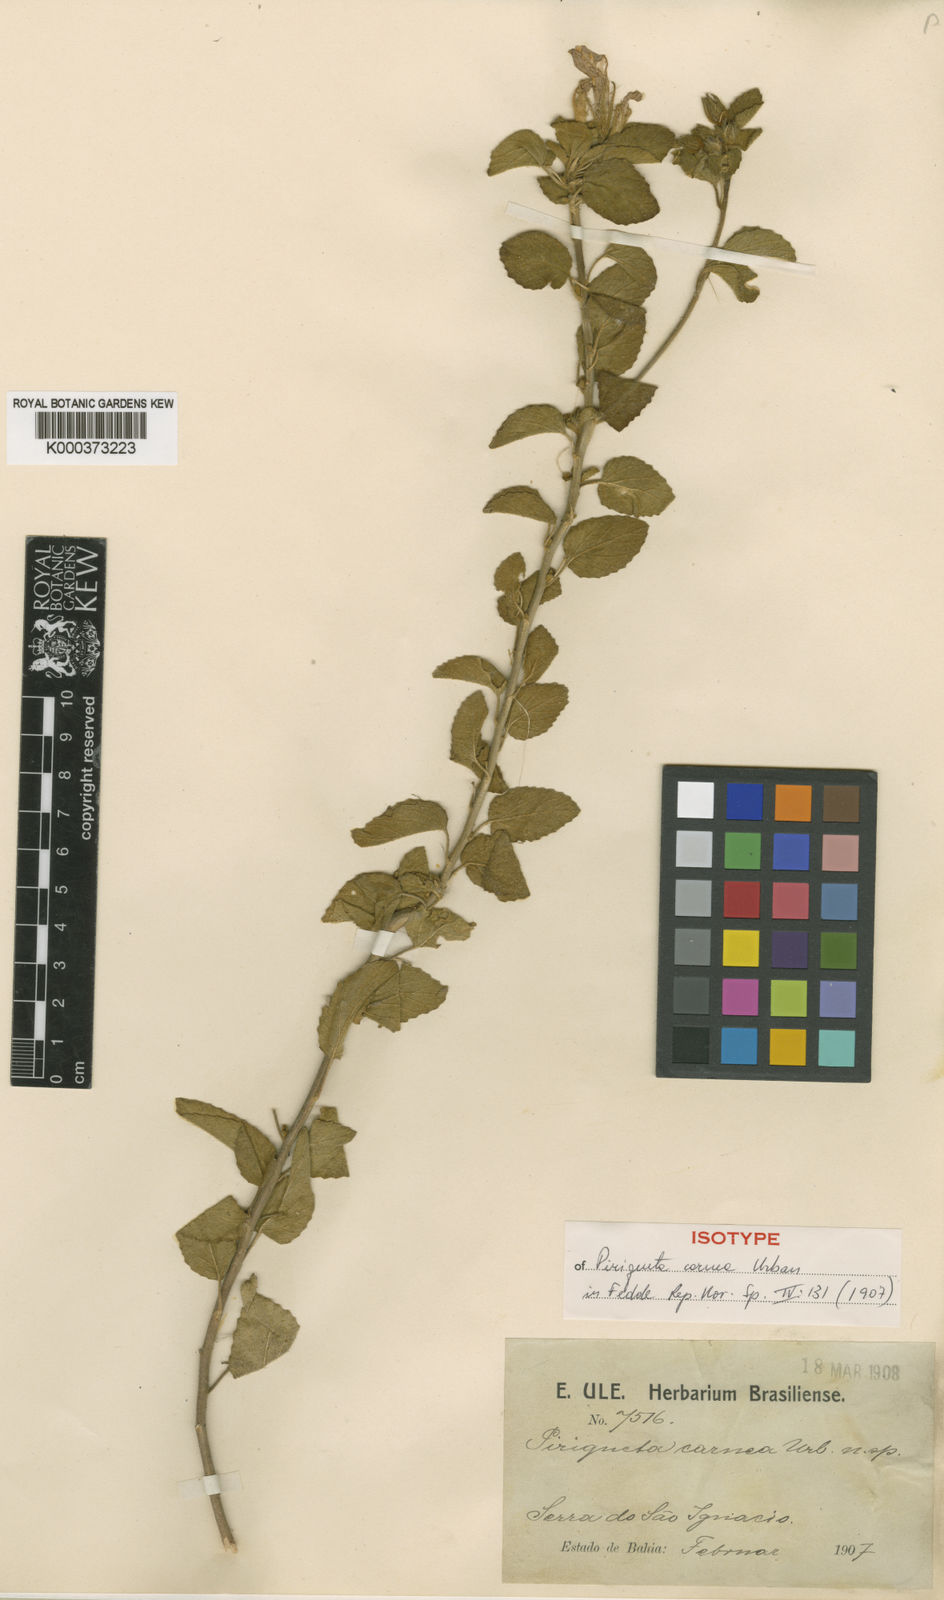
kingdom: Plantae
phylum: Tracheophyta
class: Magnoliopsida
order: Malpighiales
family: Turneraceae
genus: Piriqueta
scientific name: Piriqueta carnea
